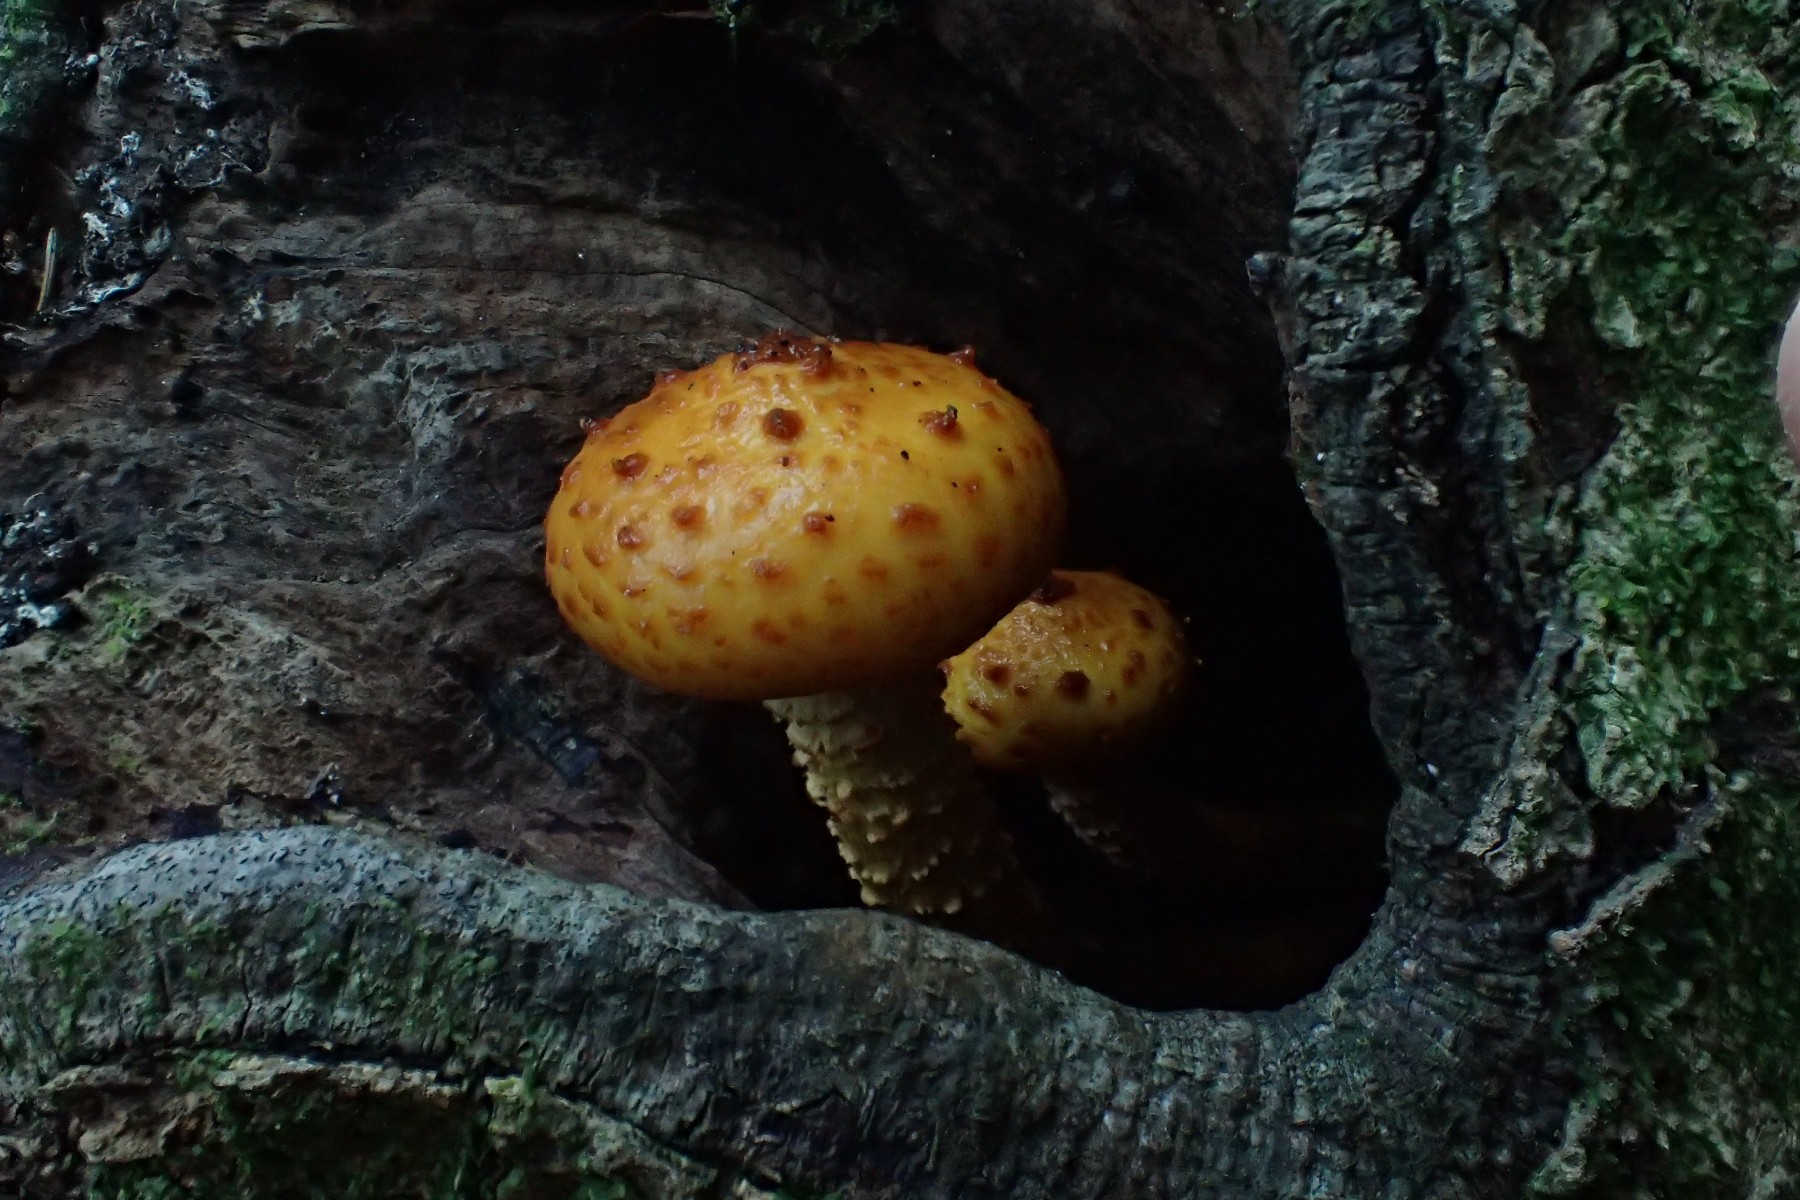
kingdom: Fungi
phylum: Basidiomycota
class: Agaricomycetes
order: Agaricales
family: Strophariaceae
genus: Pholiota
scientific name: Pholiota adiposa
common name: højtsiddende skælhat
